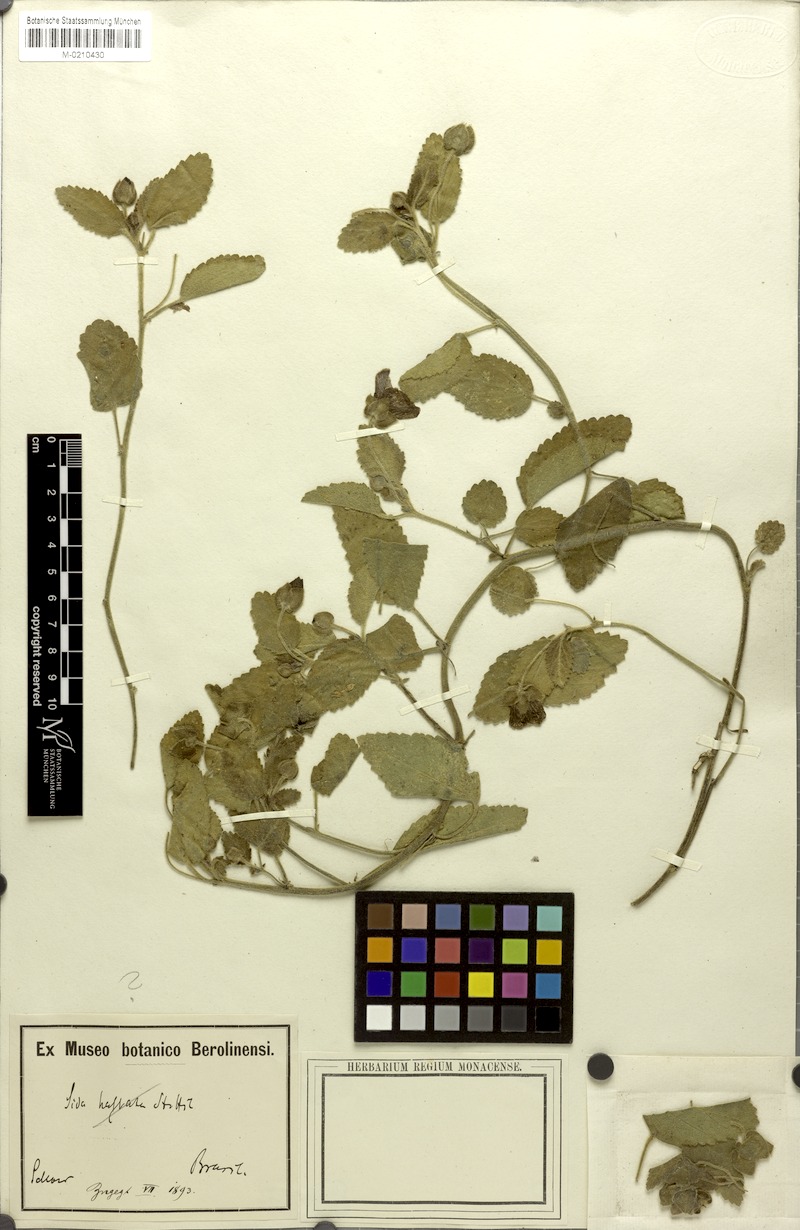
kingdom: Plantae
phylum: Tracheophyta
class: Magnoliopsida
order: Malvales
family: Malvaceae
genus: Rhynchosida
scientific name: Rhynchosida physocalyx
